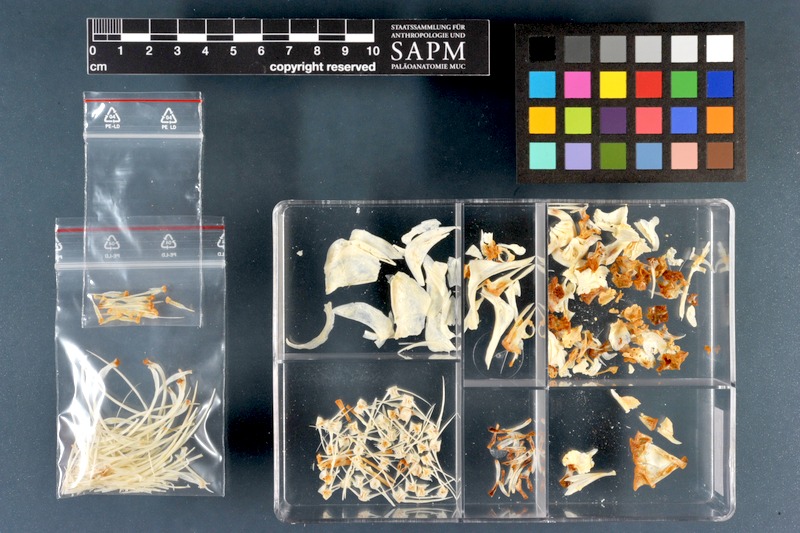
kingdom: Animalia
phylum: Chordata
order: Cypriniformes
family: Cyprinidae
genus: Rutilus
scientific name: Rutilus rutilus
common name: Roach
